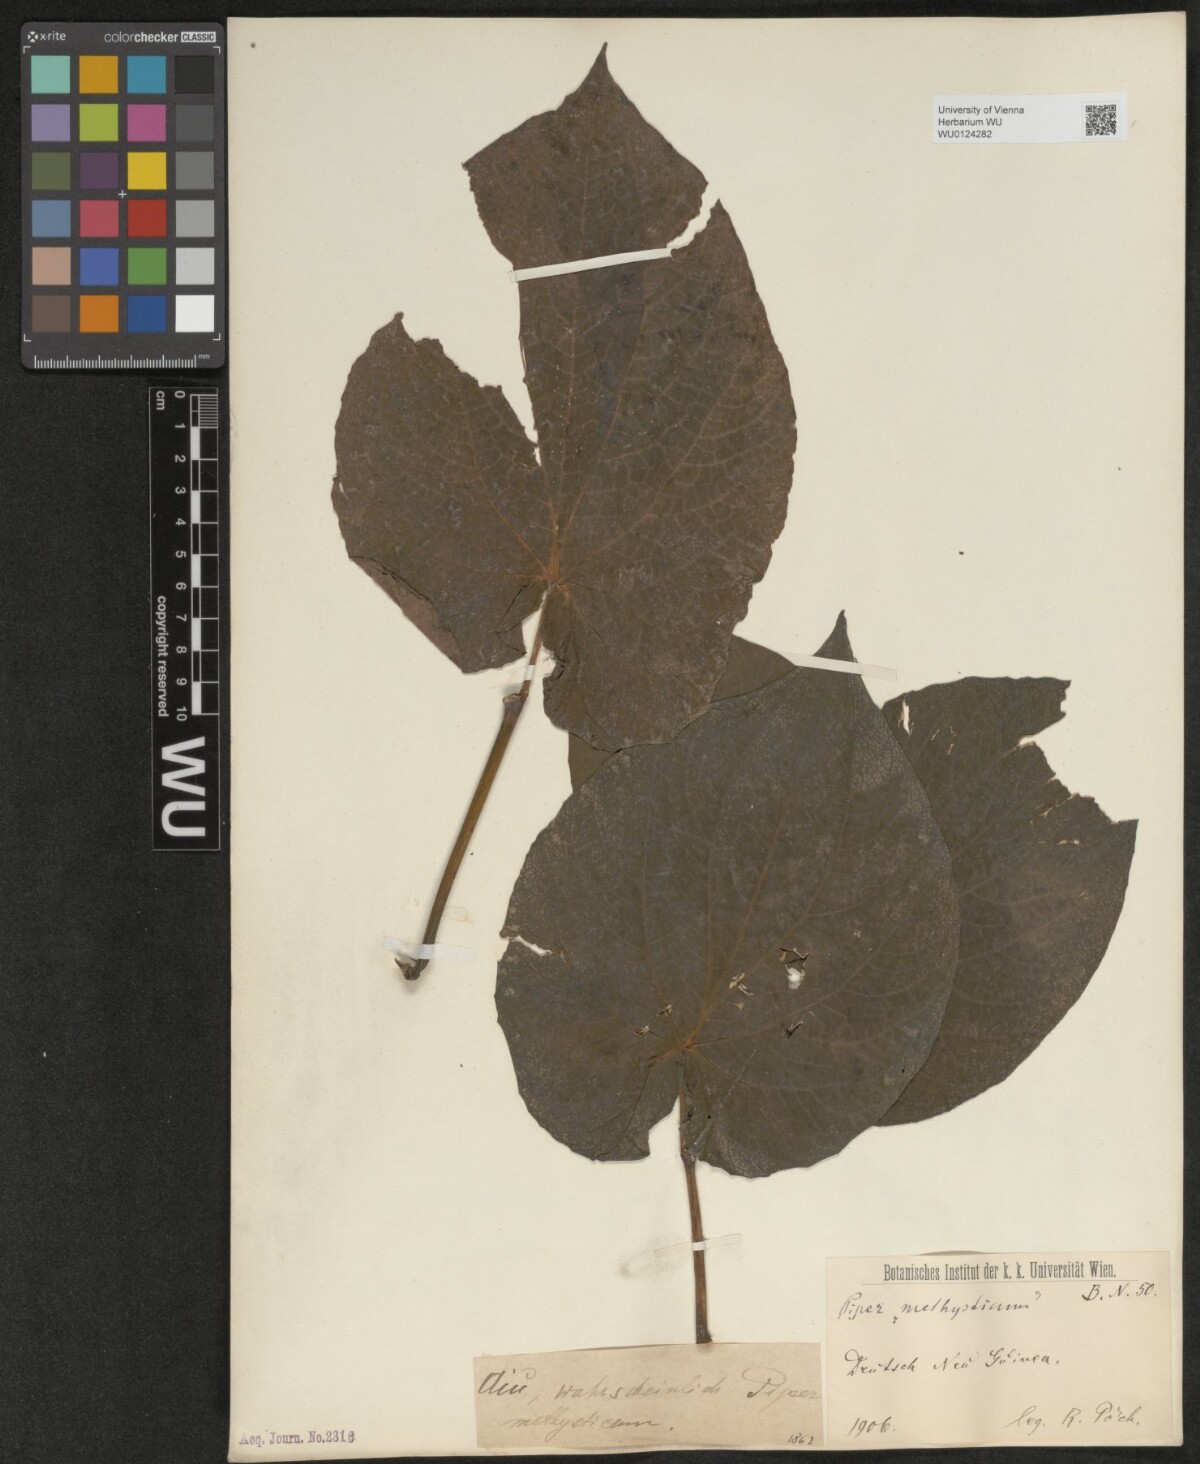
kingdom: Plantae
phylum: Tracheophyta
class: Magnoliopsida
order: Piperales
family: Piperaceae
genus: Piper
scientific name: Piper
